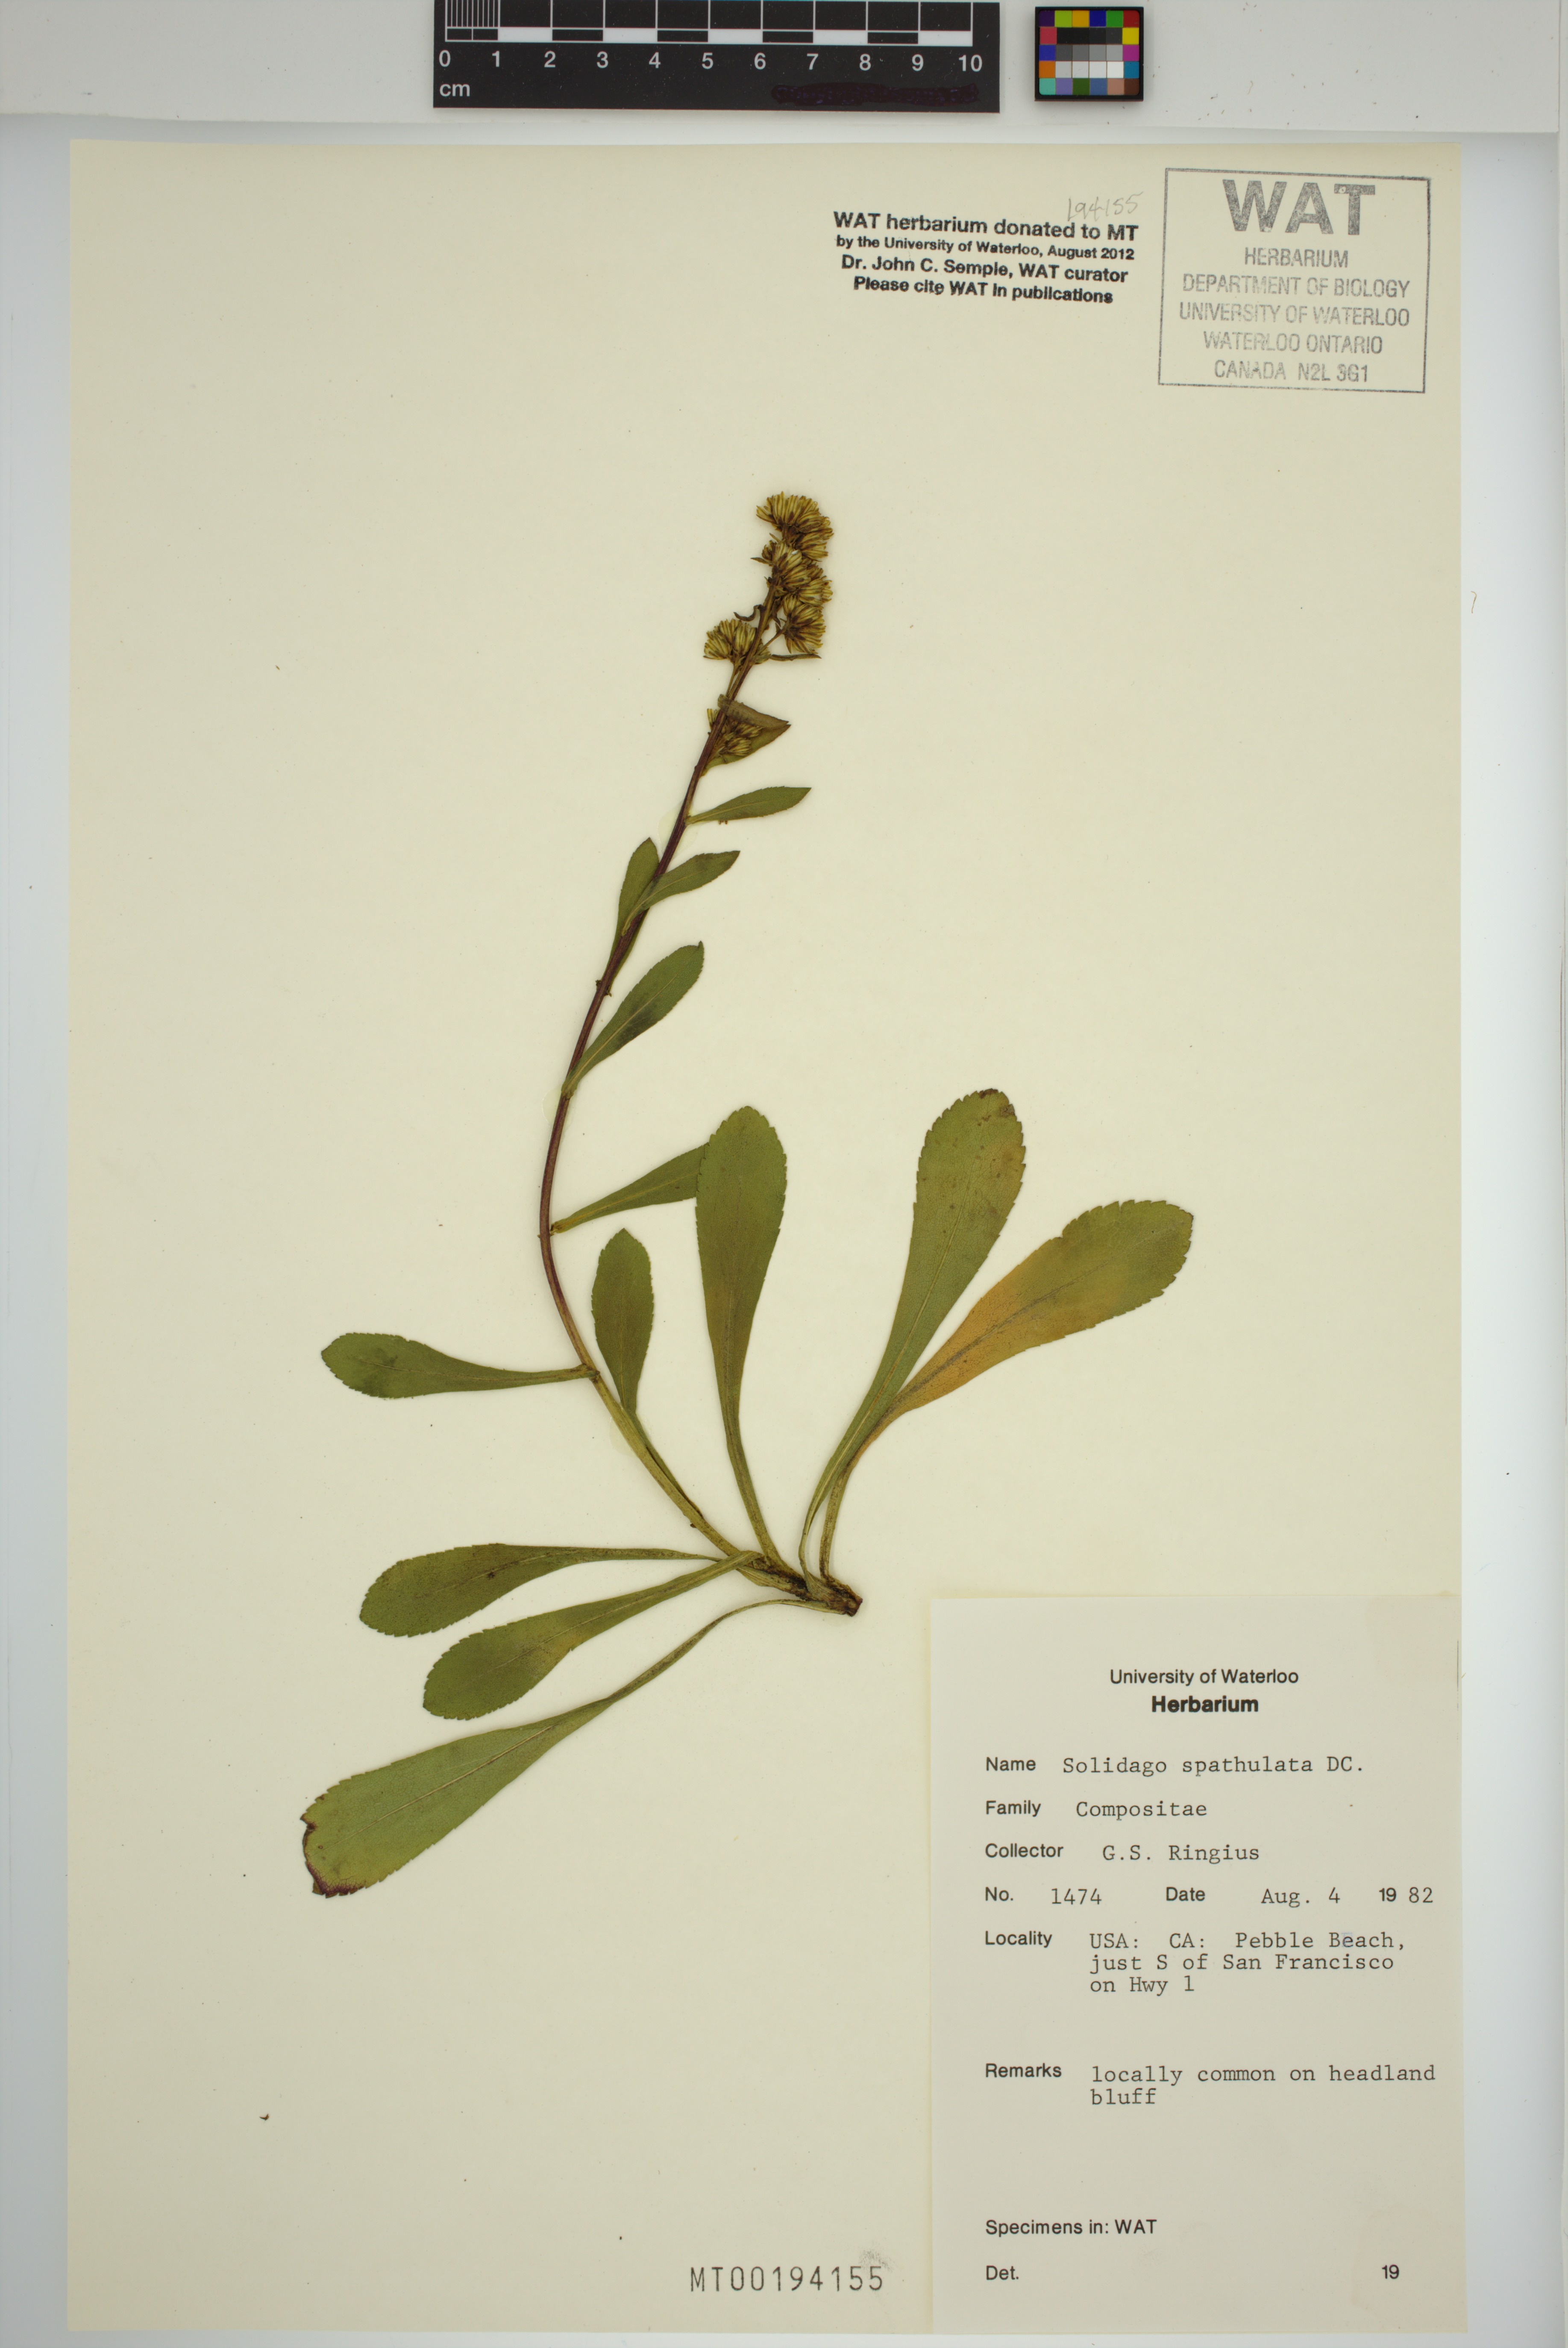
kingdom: Plantae
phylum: Tracheophyta
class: Magnoliopsida
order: Asterales
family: Asteraceae
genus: Solidago
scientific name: Solidago spathulata
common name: Coast goldenrod
